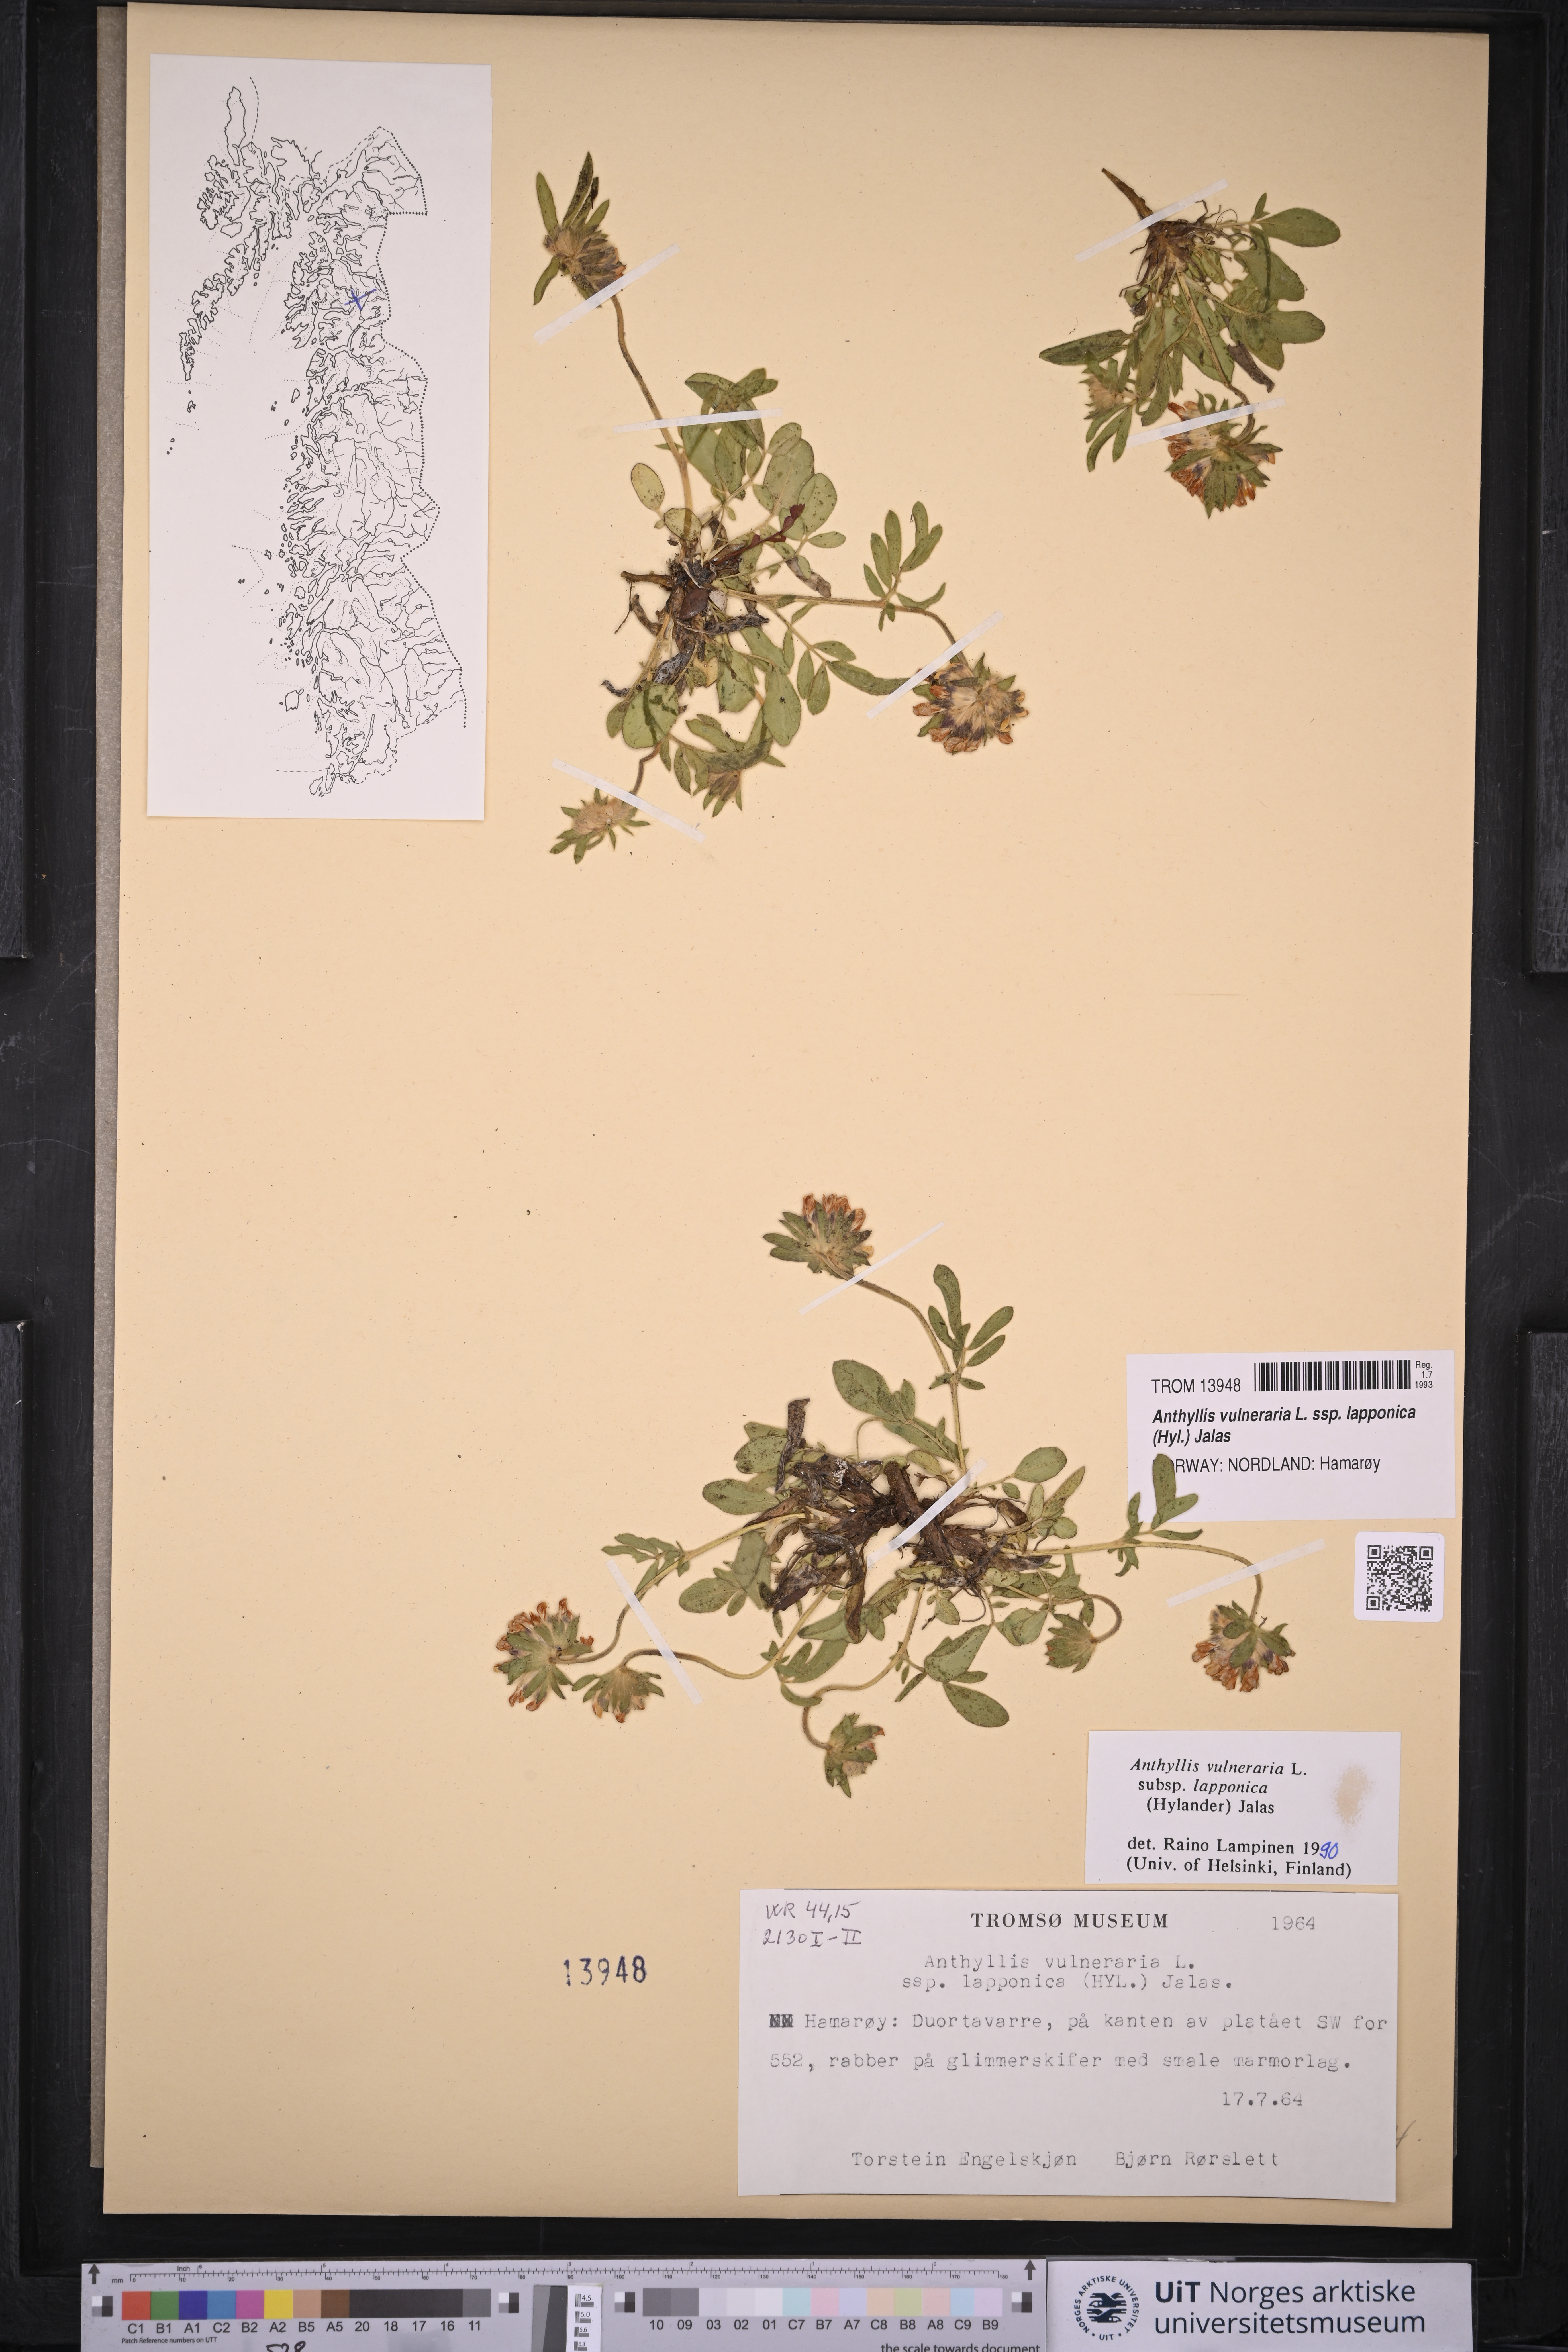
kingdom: Plantae
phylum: Tracheophyta
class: Magnoliopsida
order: Fabales
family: Fabaceae
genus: Anthyllis
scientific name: Anthyllis vulneraria
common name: Kidney vetch
